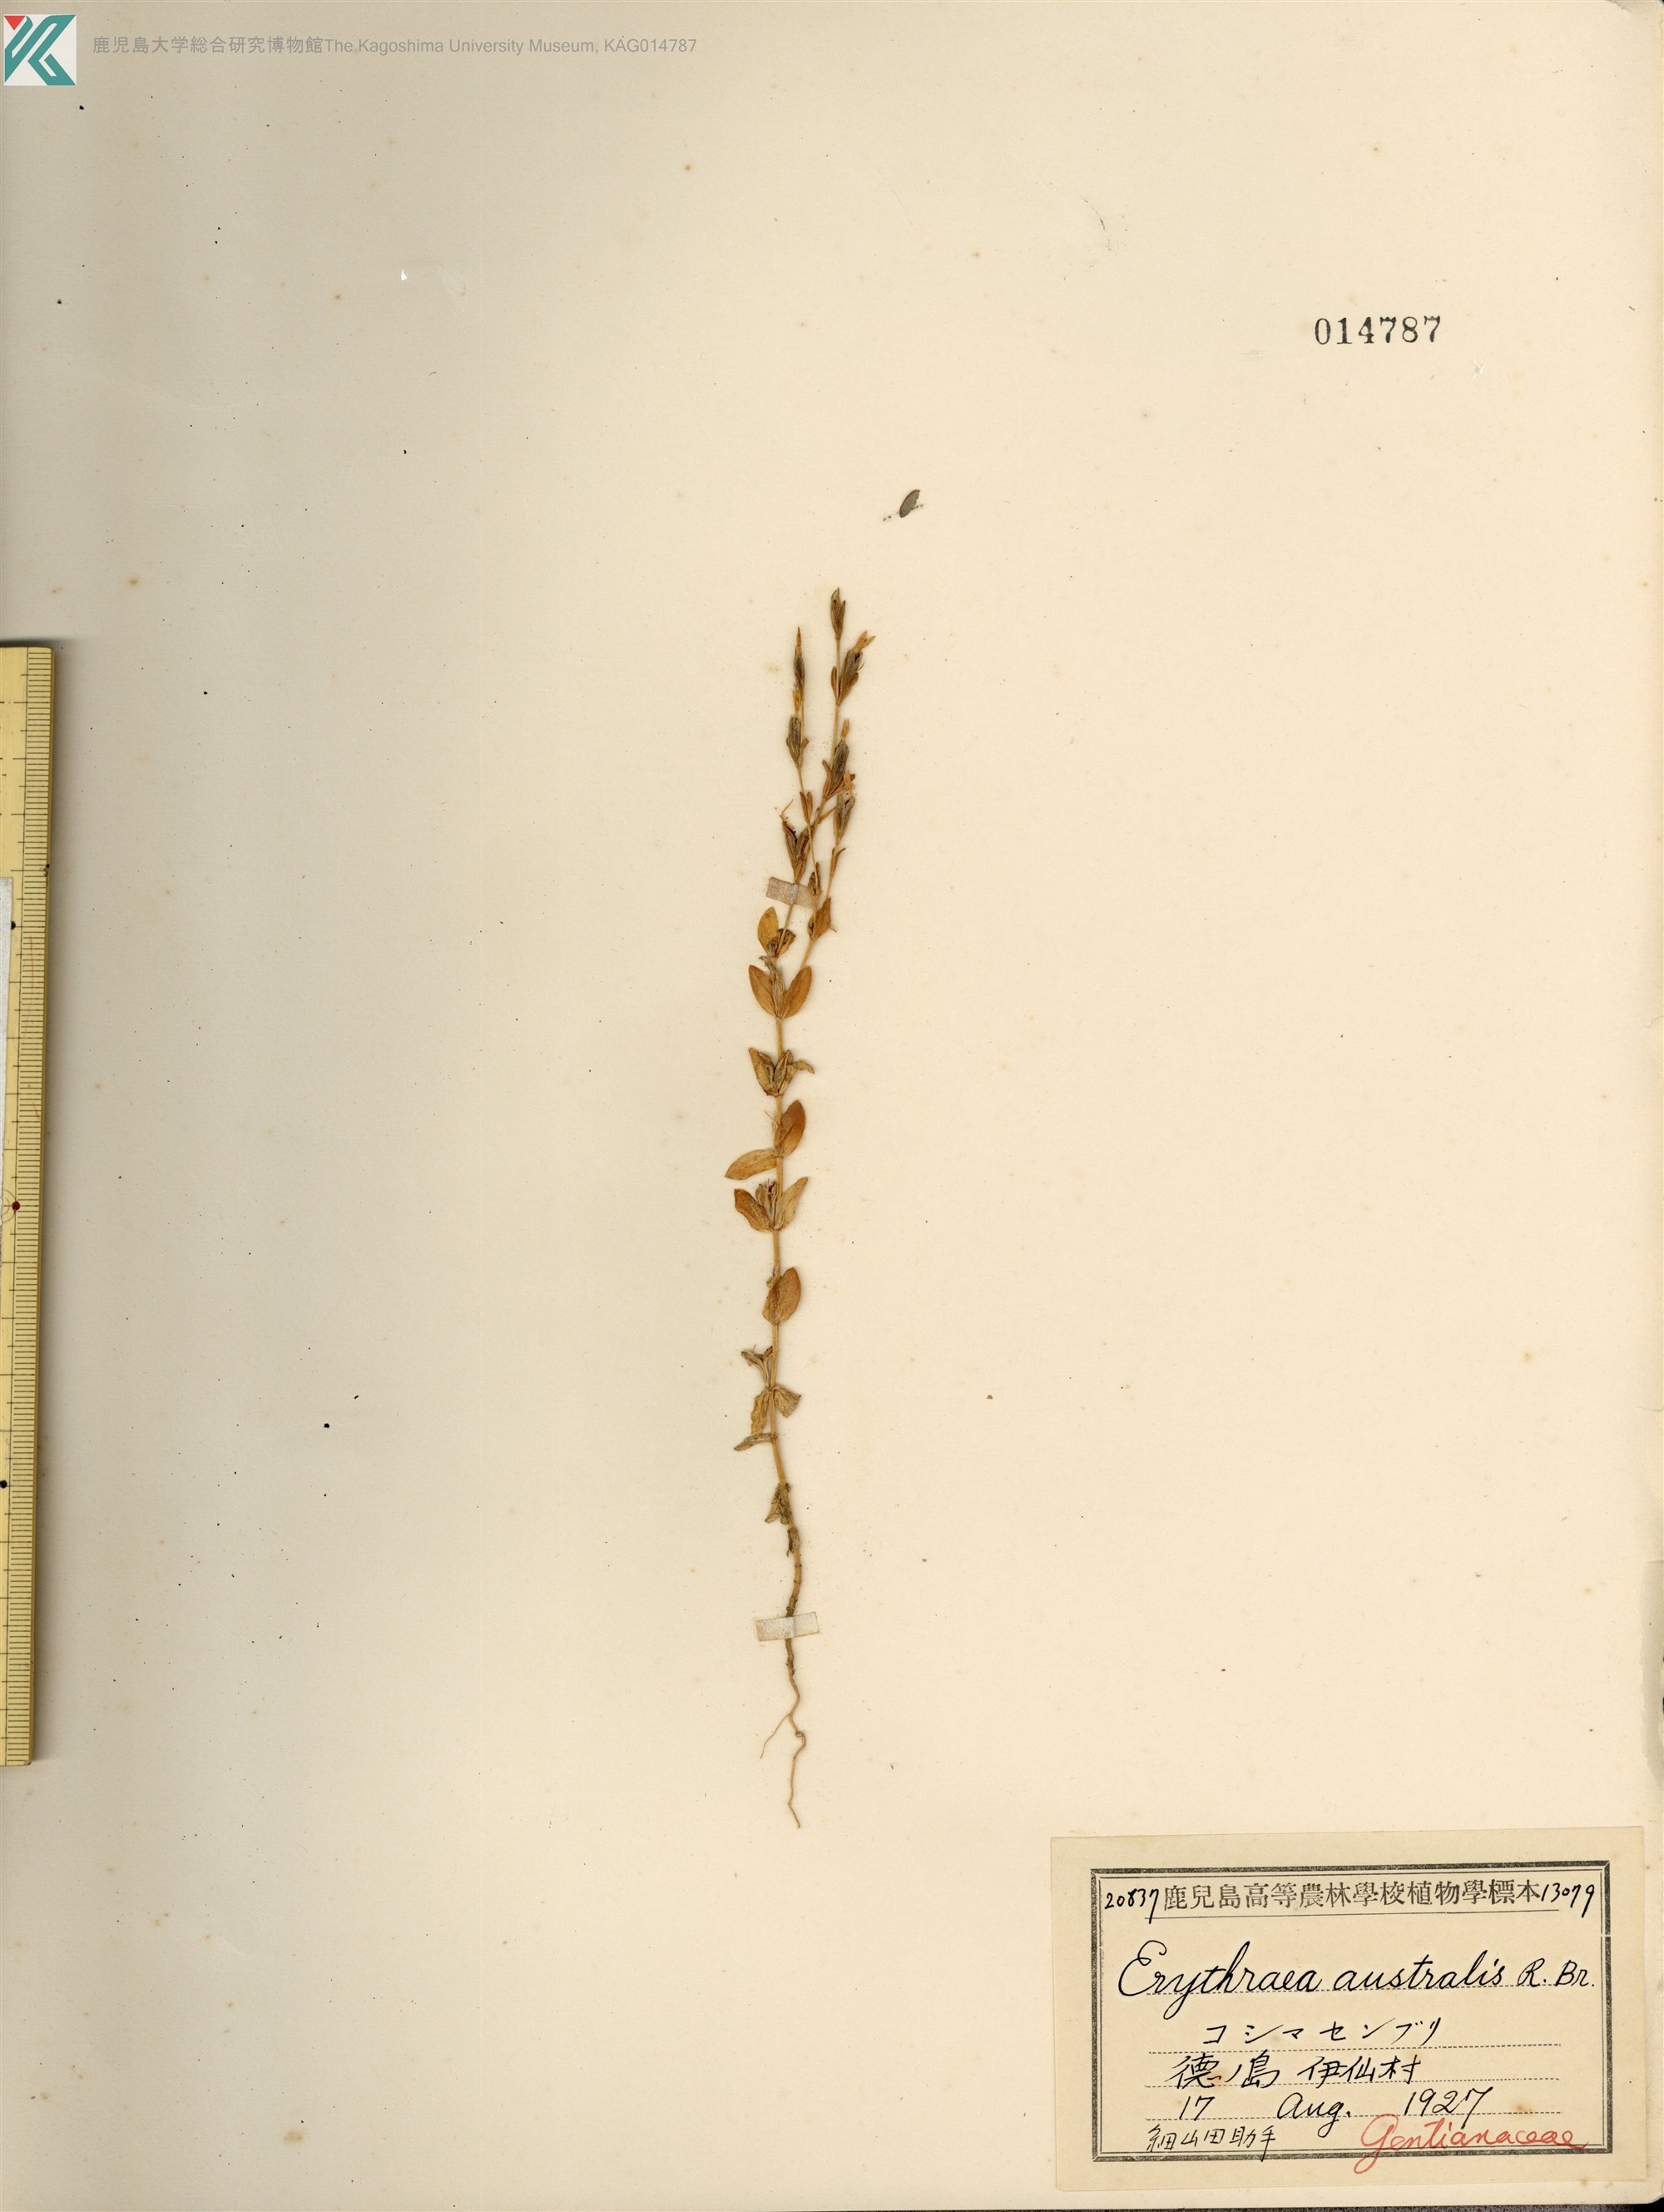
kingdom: Plantae
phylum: Tracheophyta
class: Magnoliopsida
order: Gentianales
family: Gentianaceae
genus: Schenkia
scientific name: Schenkia japonica
